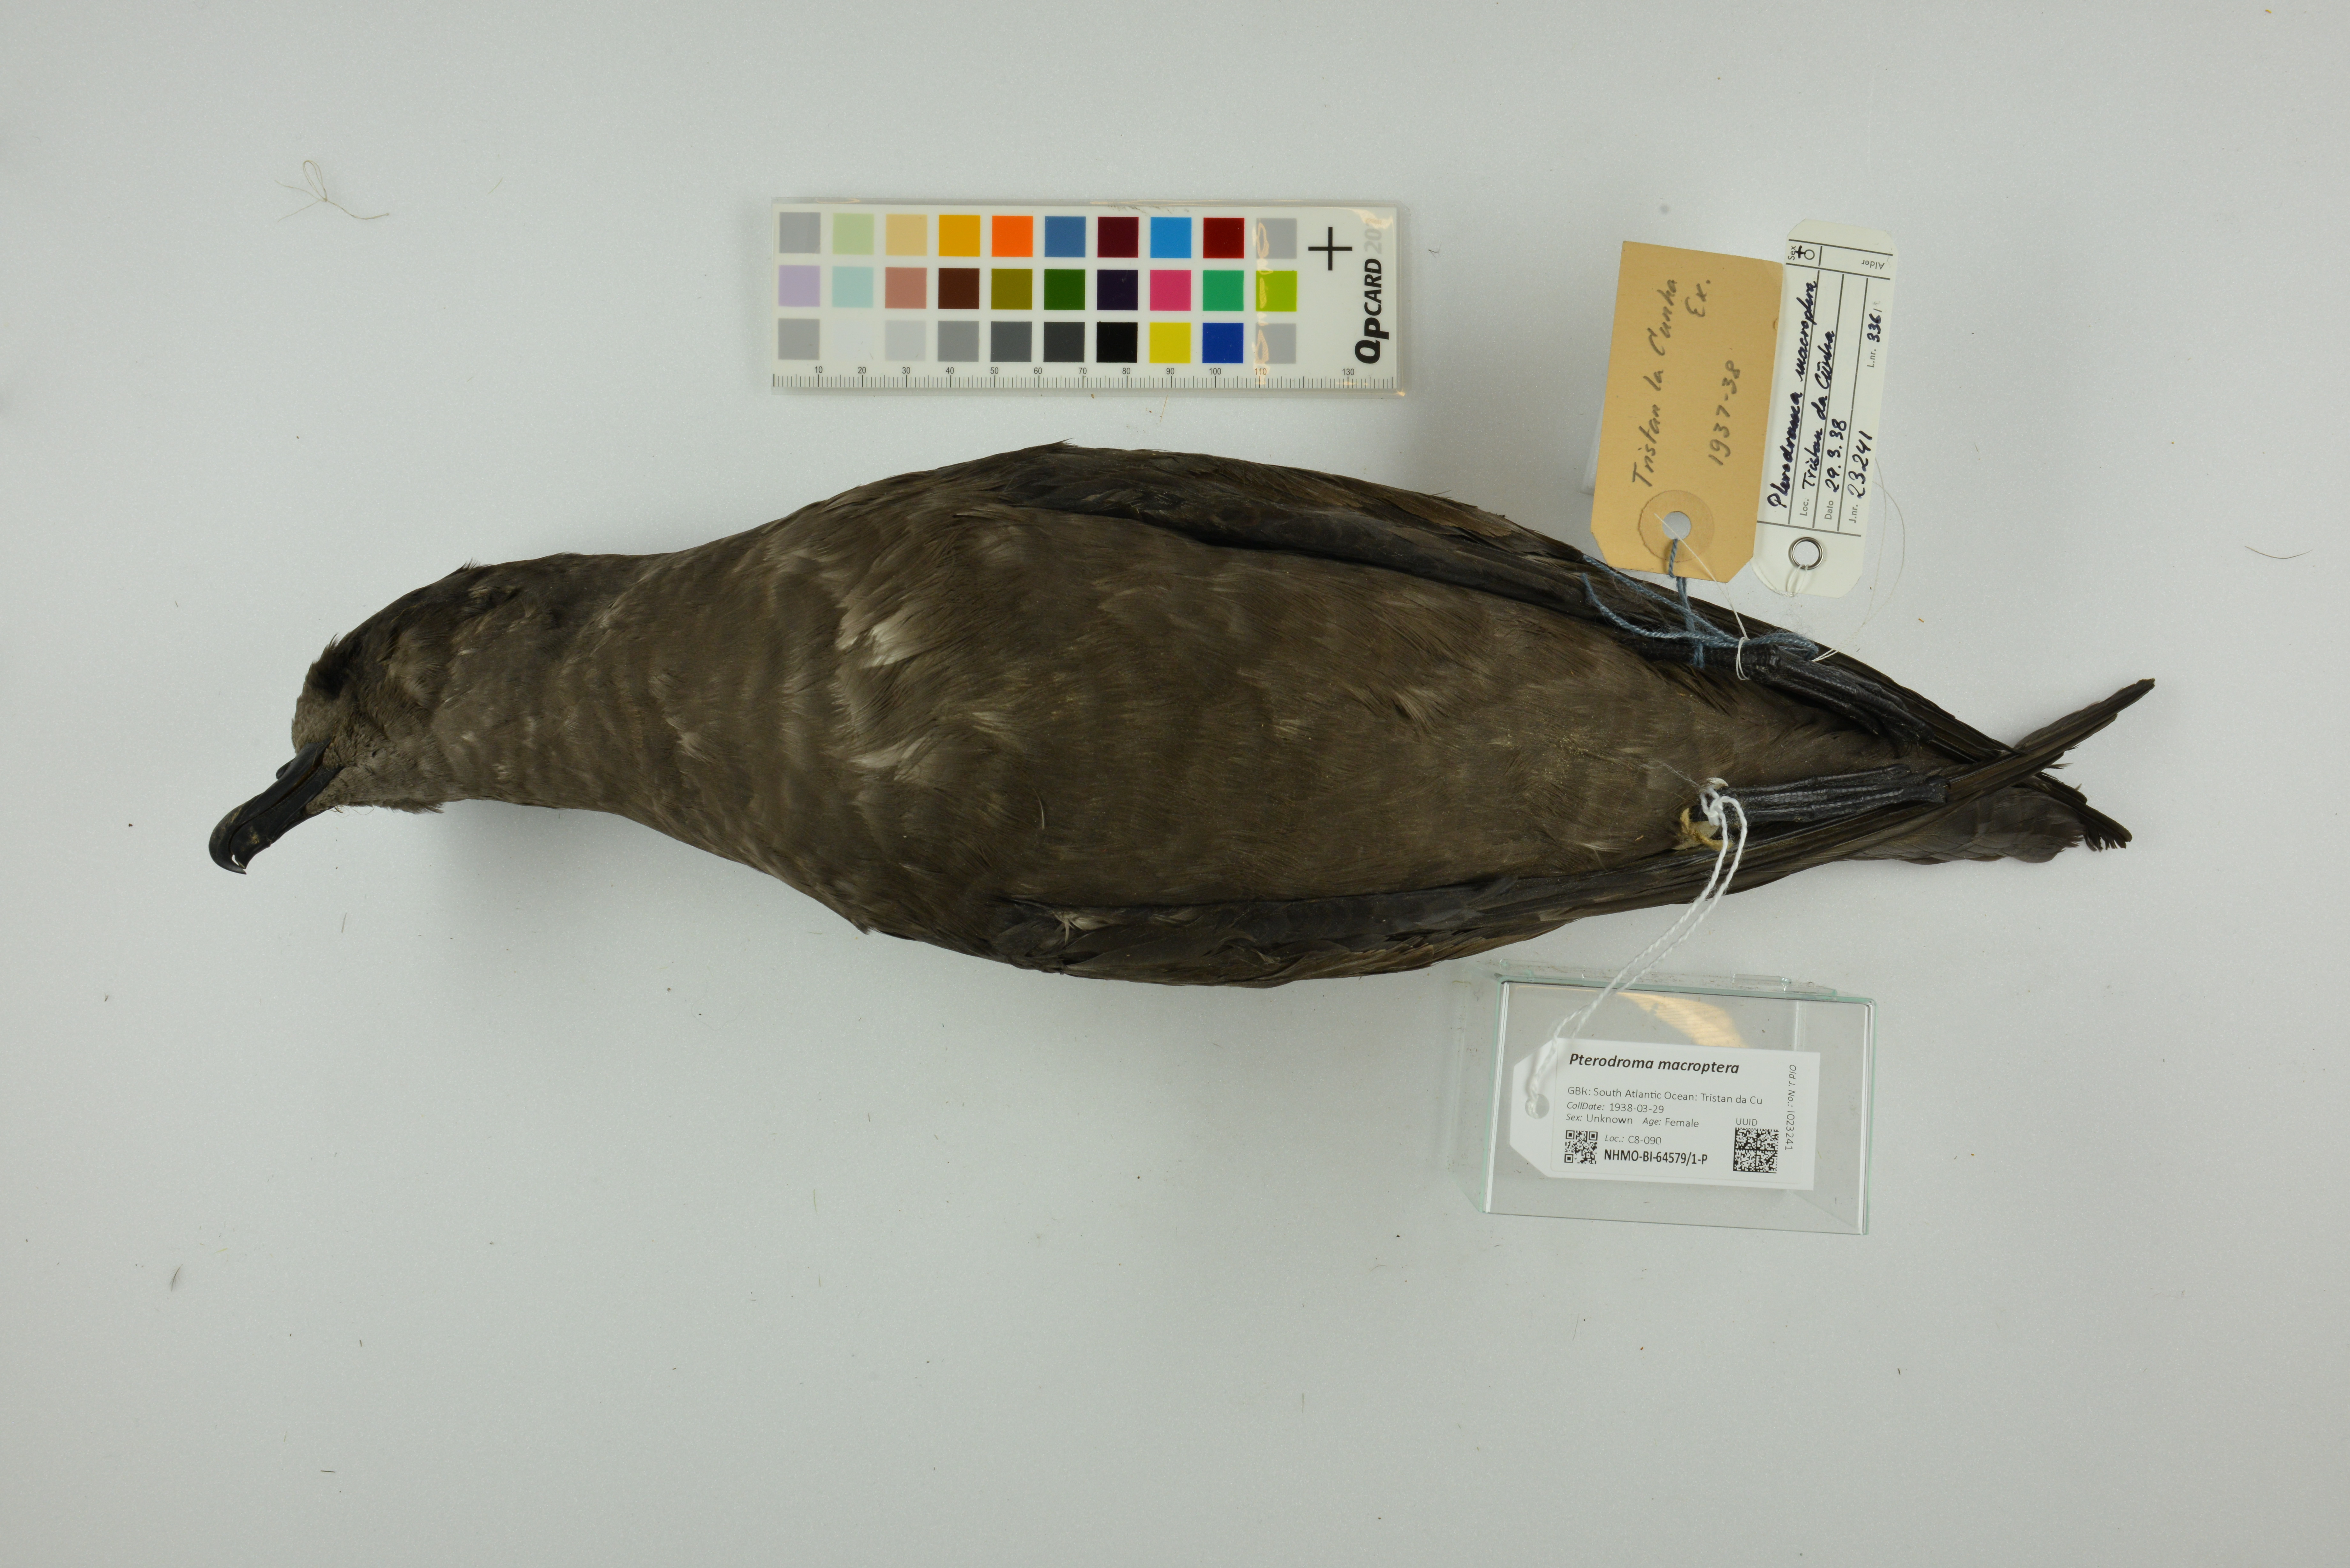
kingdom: Animalia
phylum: Chordata
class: Aves
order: Procellariiformes
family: Procellariidae
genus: Pterodroma
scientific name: Pterodroma macroptera
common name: Great-winged petrel
